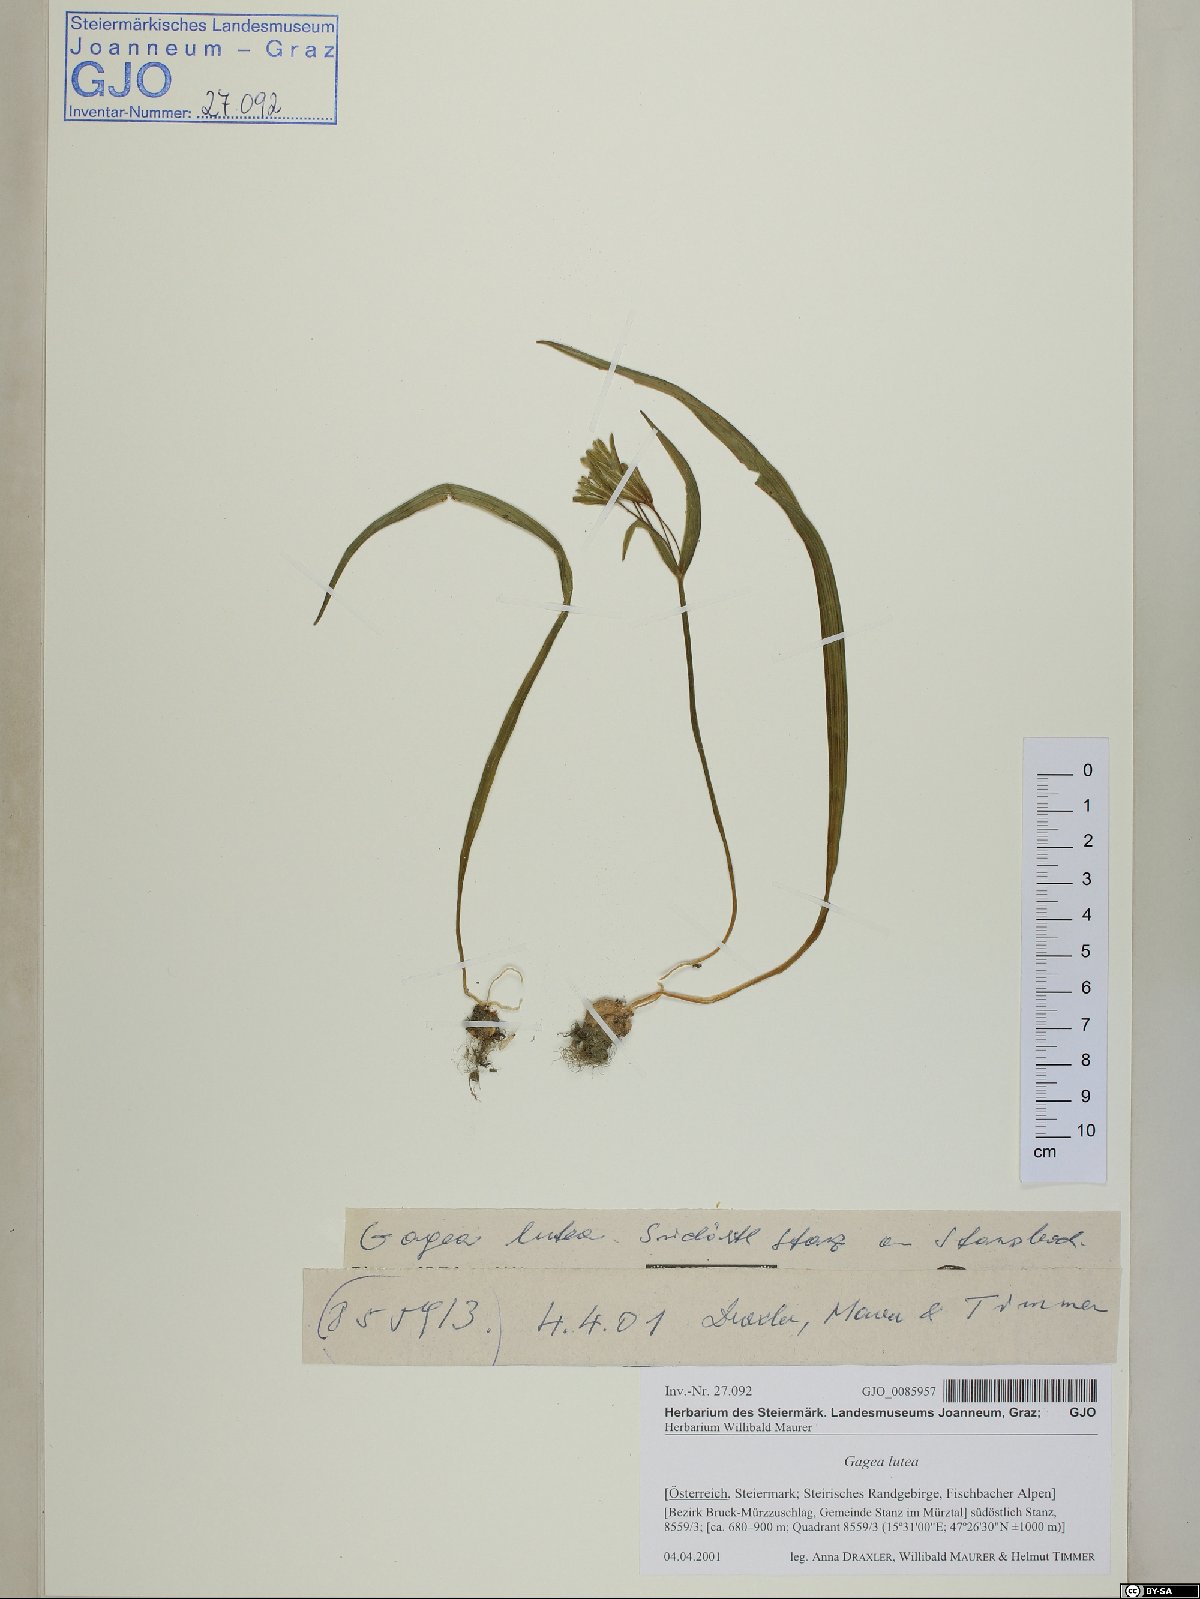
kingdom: Plantae
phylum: Tracheophyta
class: Liliopsida
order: Liliales
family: Liliaceae
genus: Gagea
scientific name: Gagea lutea
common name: Yellow star-of-bethlehem
